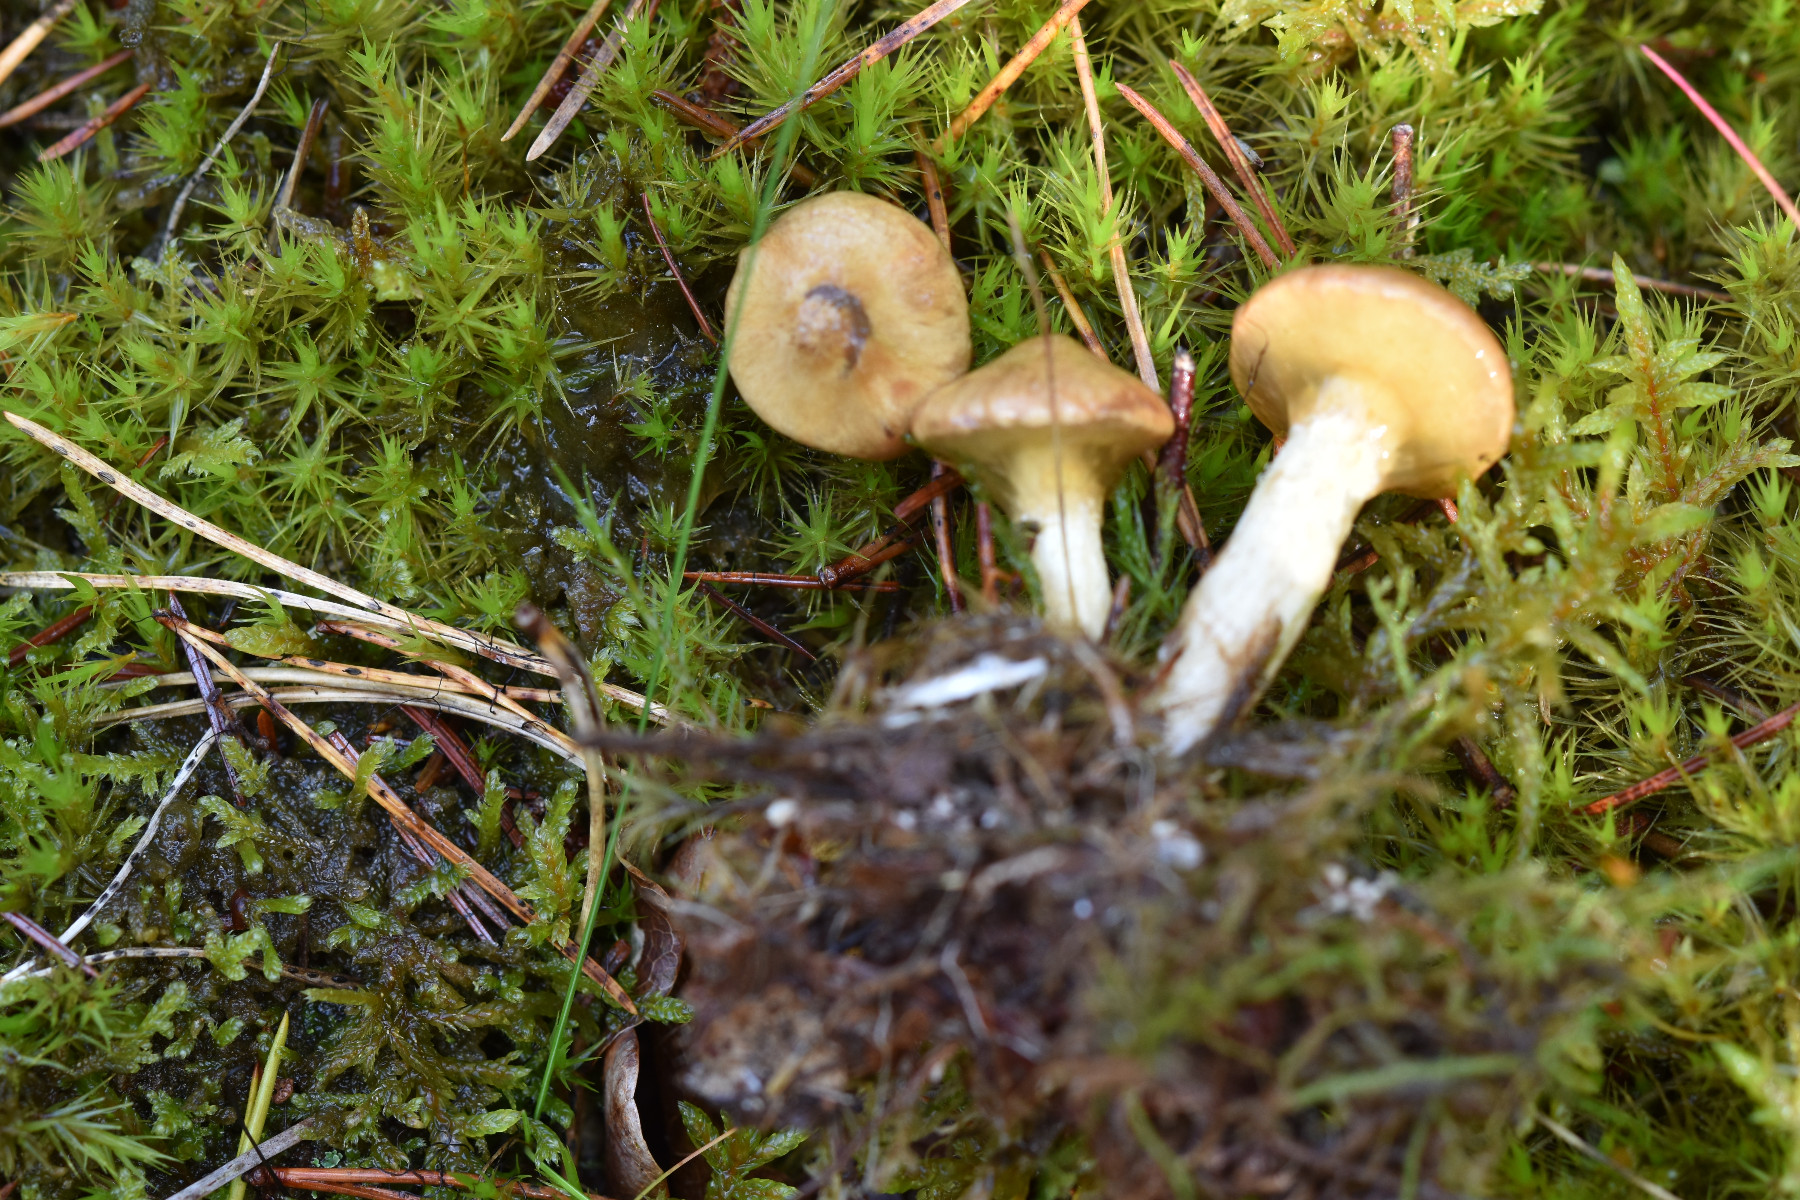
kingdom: Fungi
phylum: Basidiomycota
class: Agaricomycetes
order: Boletales
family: Suillaceae
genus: Suillus
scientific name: Suillus flavidus
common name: mose-slimrørhat
